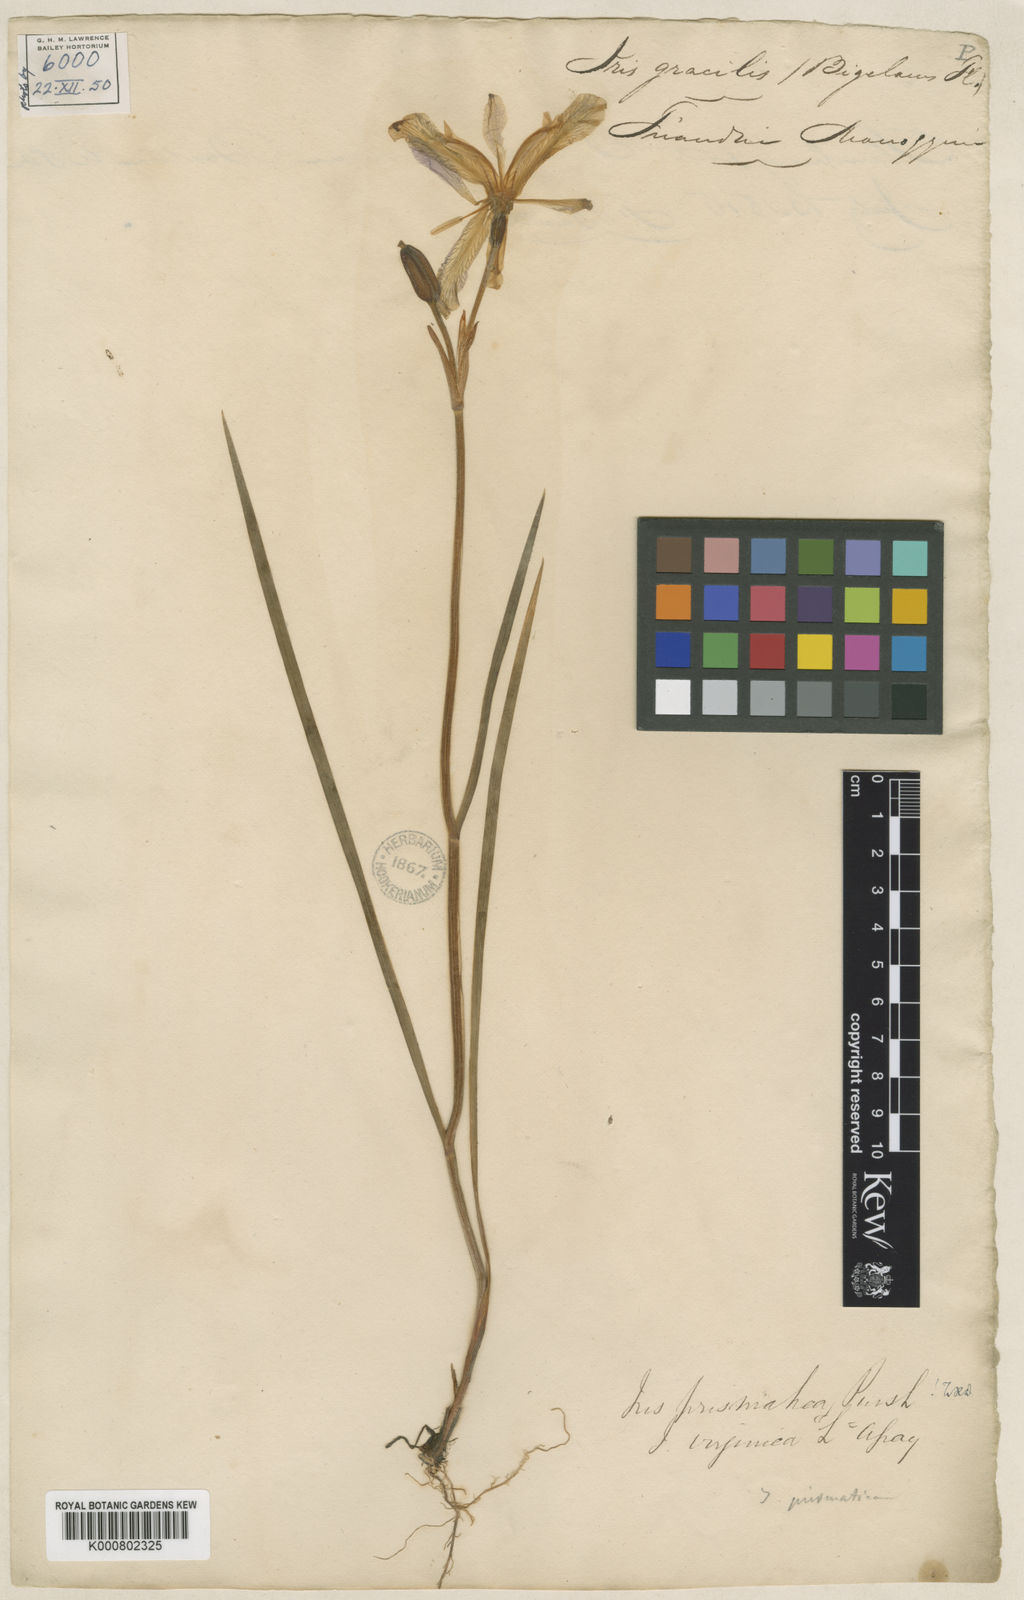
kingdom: Plantae
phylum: Tracheophyta
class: Liliopsida
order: Asparagales
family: Iridaceae
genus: Iris
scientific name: Iris prismatica
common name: Slender blue flag
